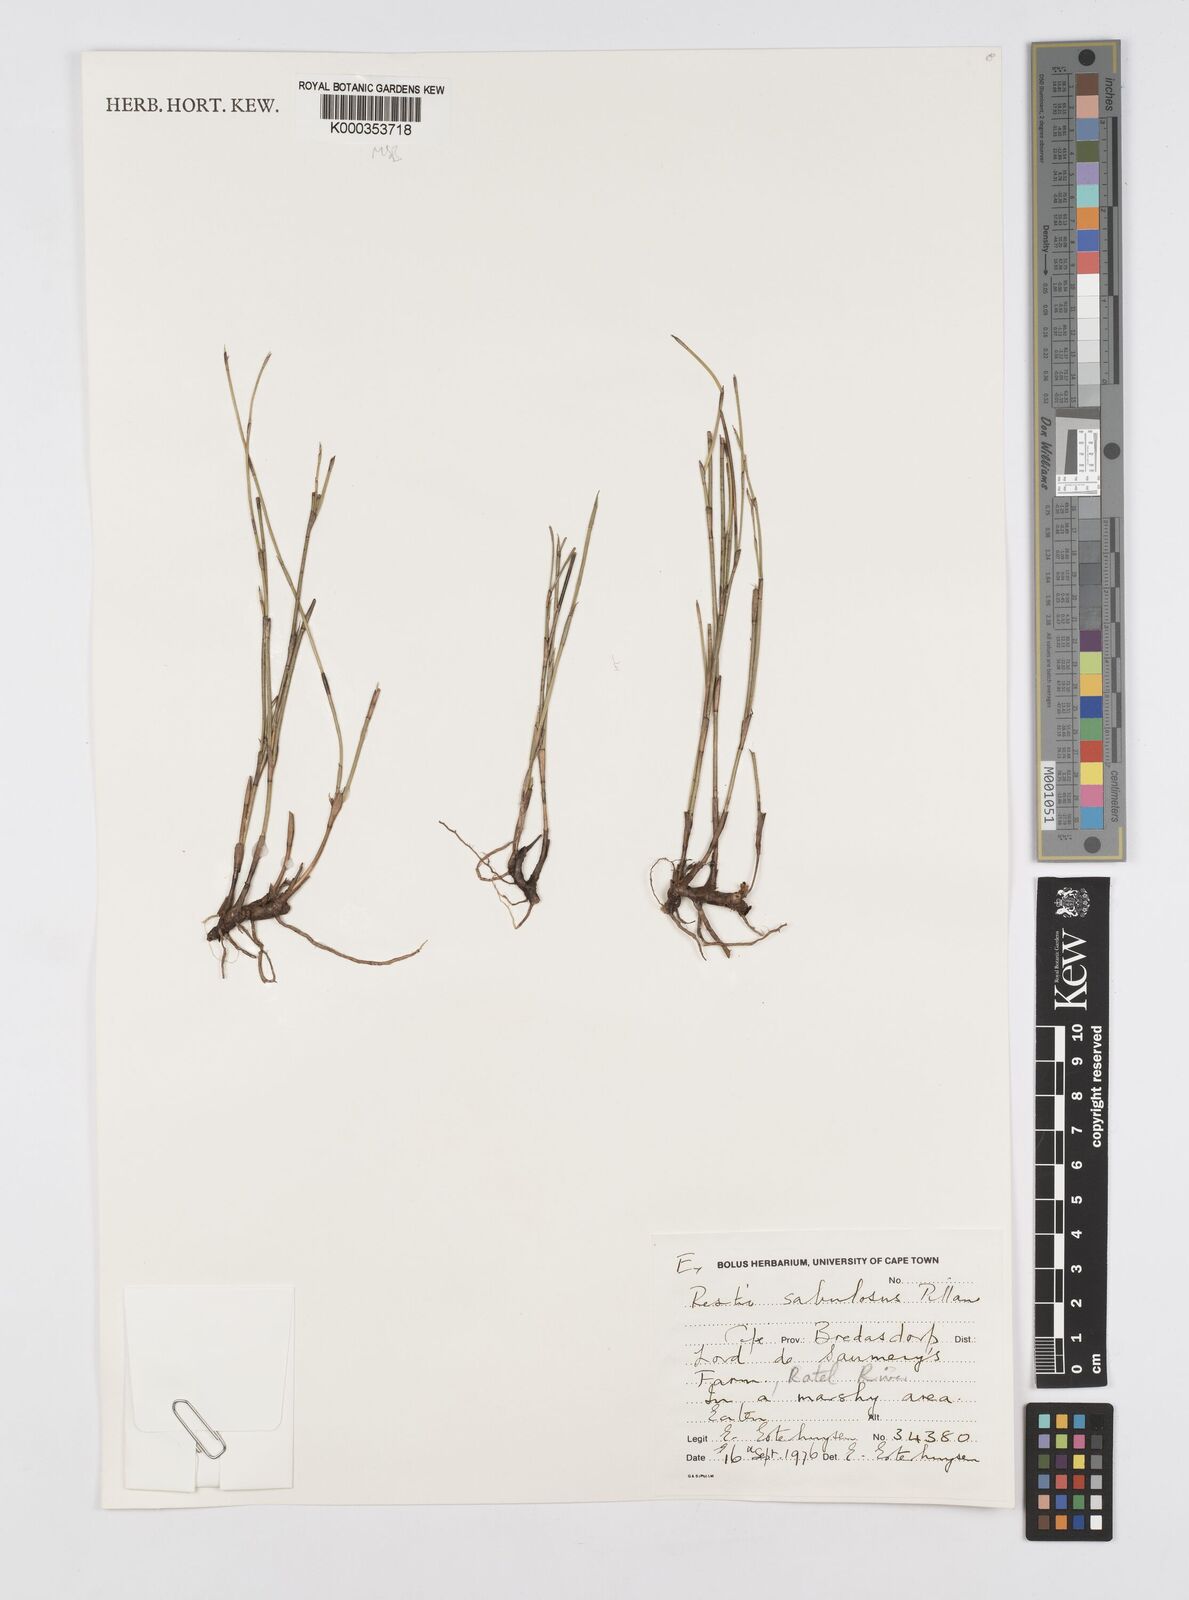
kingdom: Plantae
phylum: Tracheophyta
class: Liliopsida
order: Poales
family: Restionaceae
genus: Restio
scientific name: Restio sabulosus
